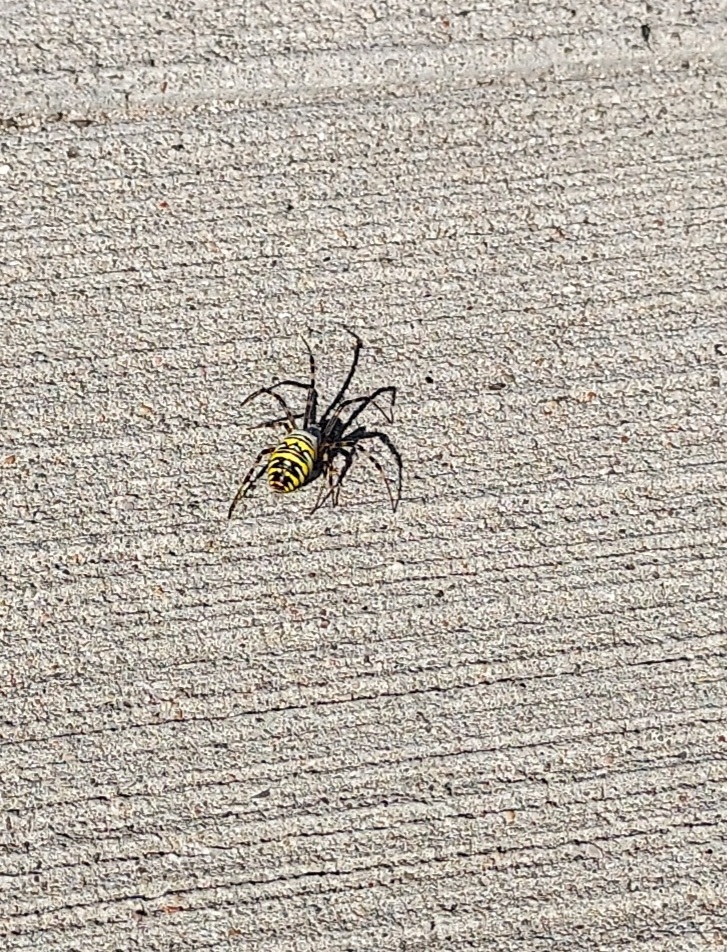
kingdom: Animalia
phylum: Arthropoda
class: Arachnida
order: Araneae
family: Araneidae
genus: Argiope
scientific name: Argiope bruennichi
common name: Hvepseedderkop
